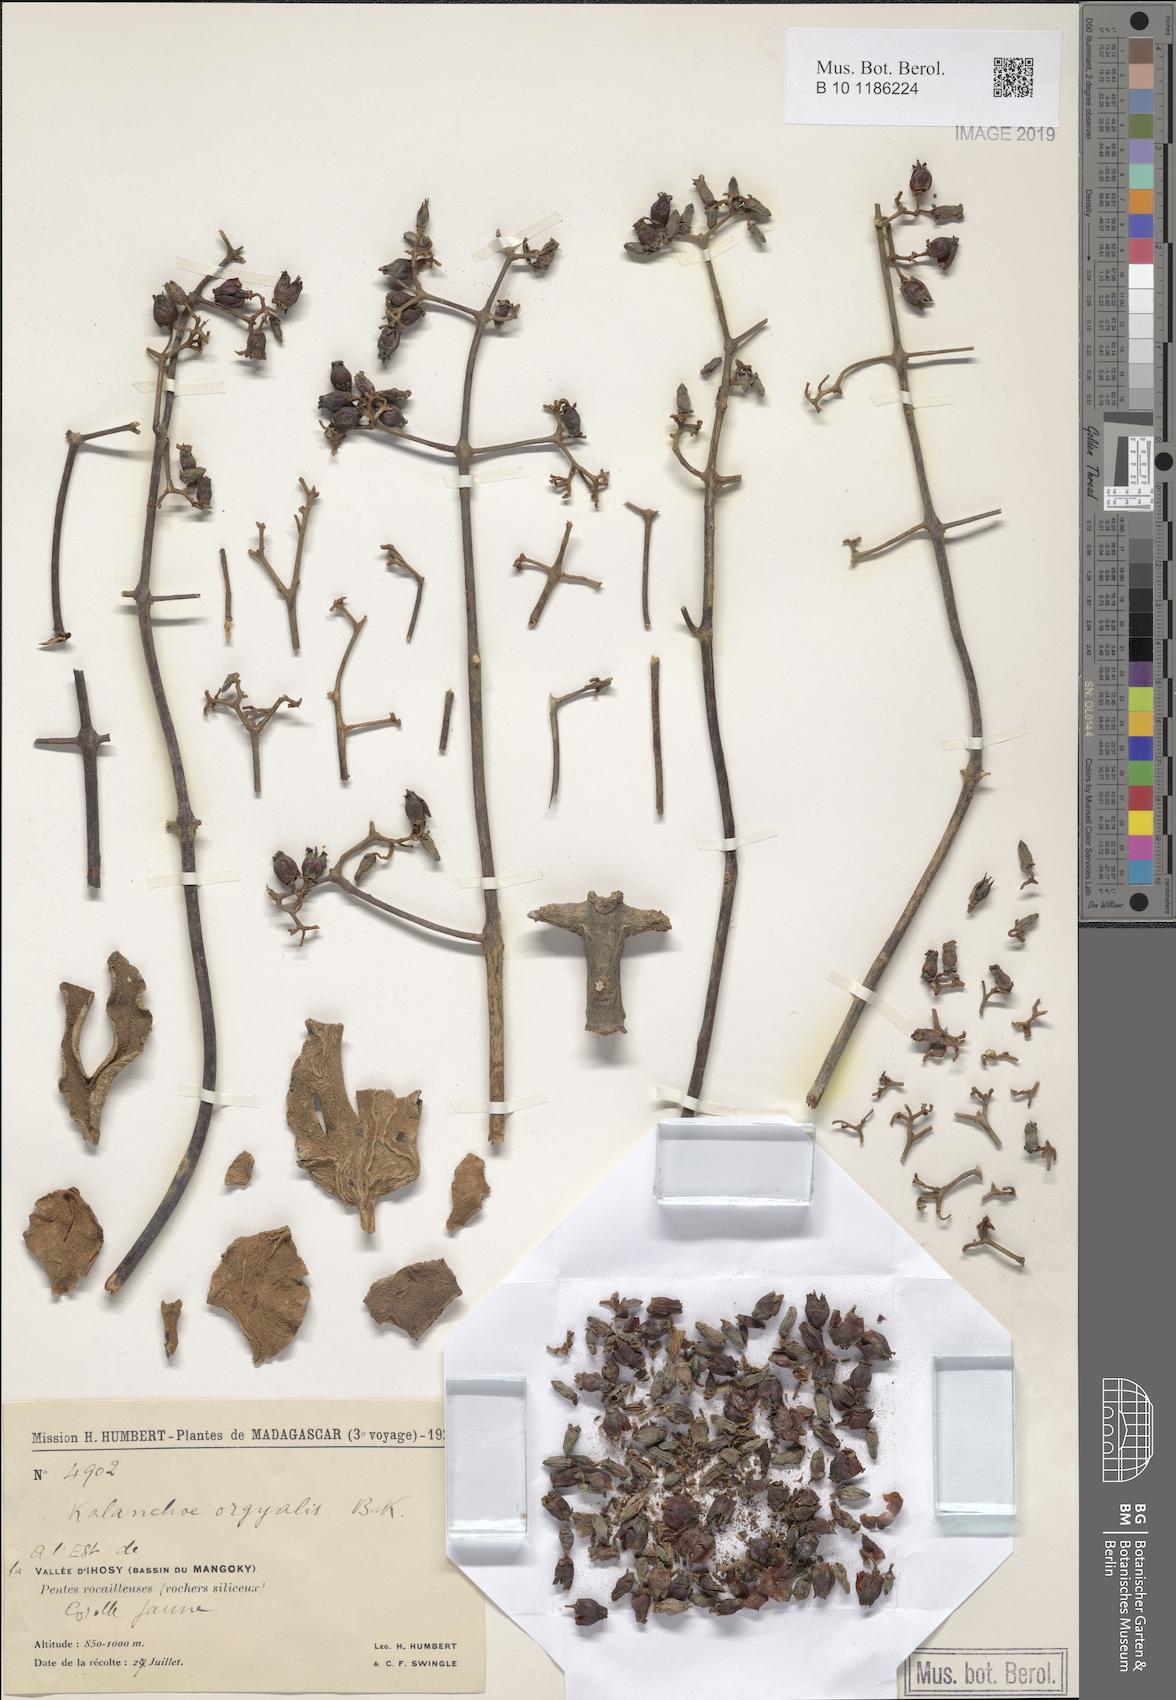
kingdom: Plantae
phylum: Tracheophyta
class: Magnoliopsida
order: Saxifragales
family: Crassulaceae
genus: Kalanchoe
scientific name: Kalanchoe orgyalis
